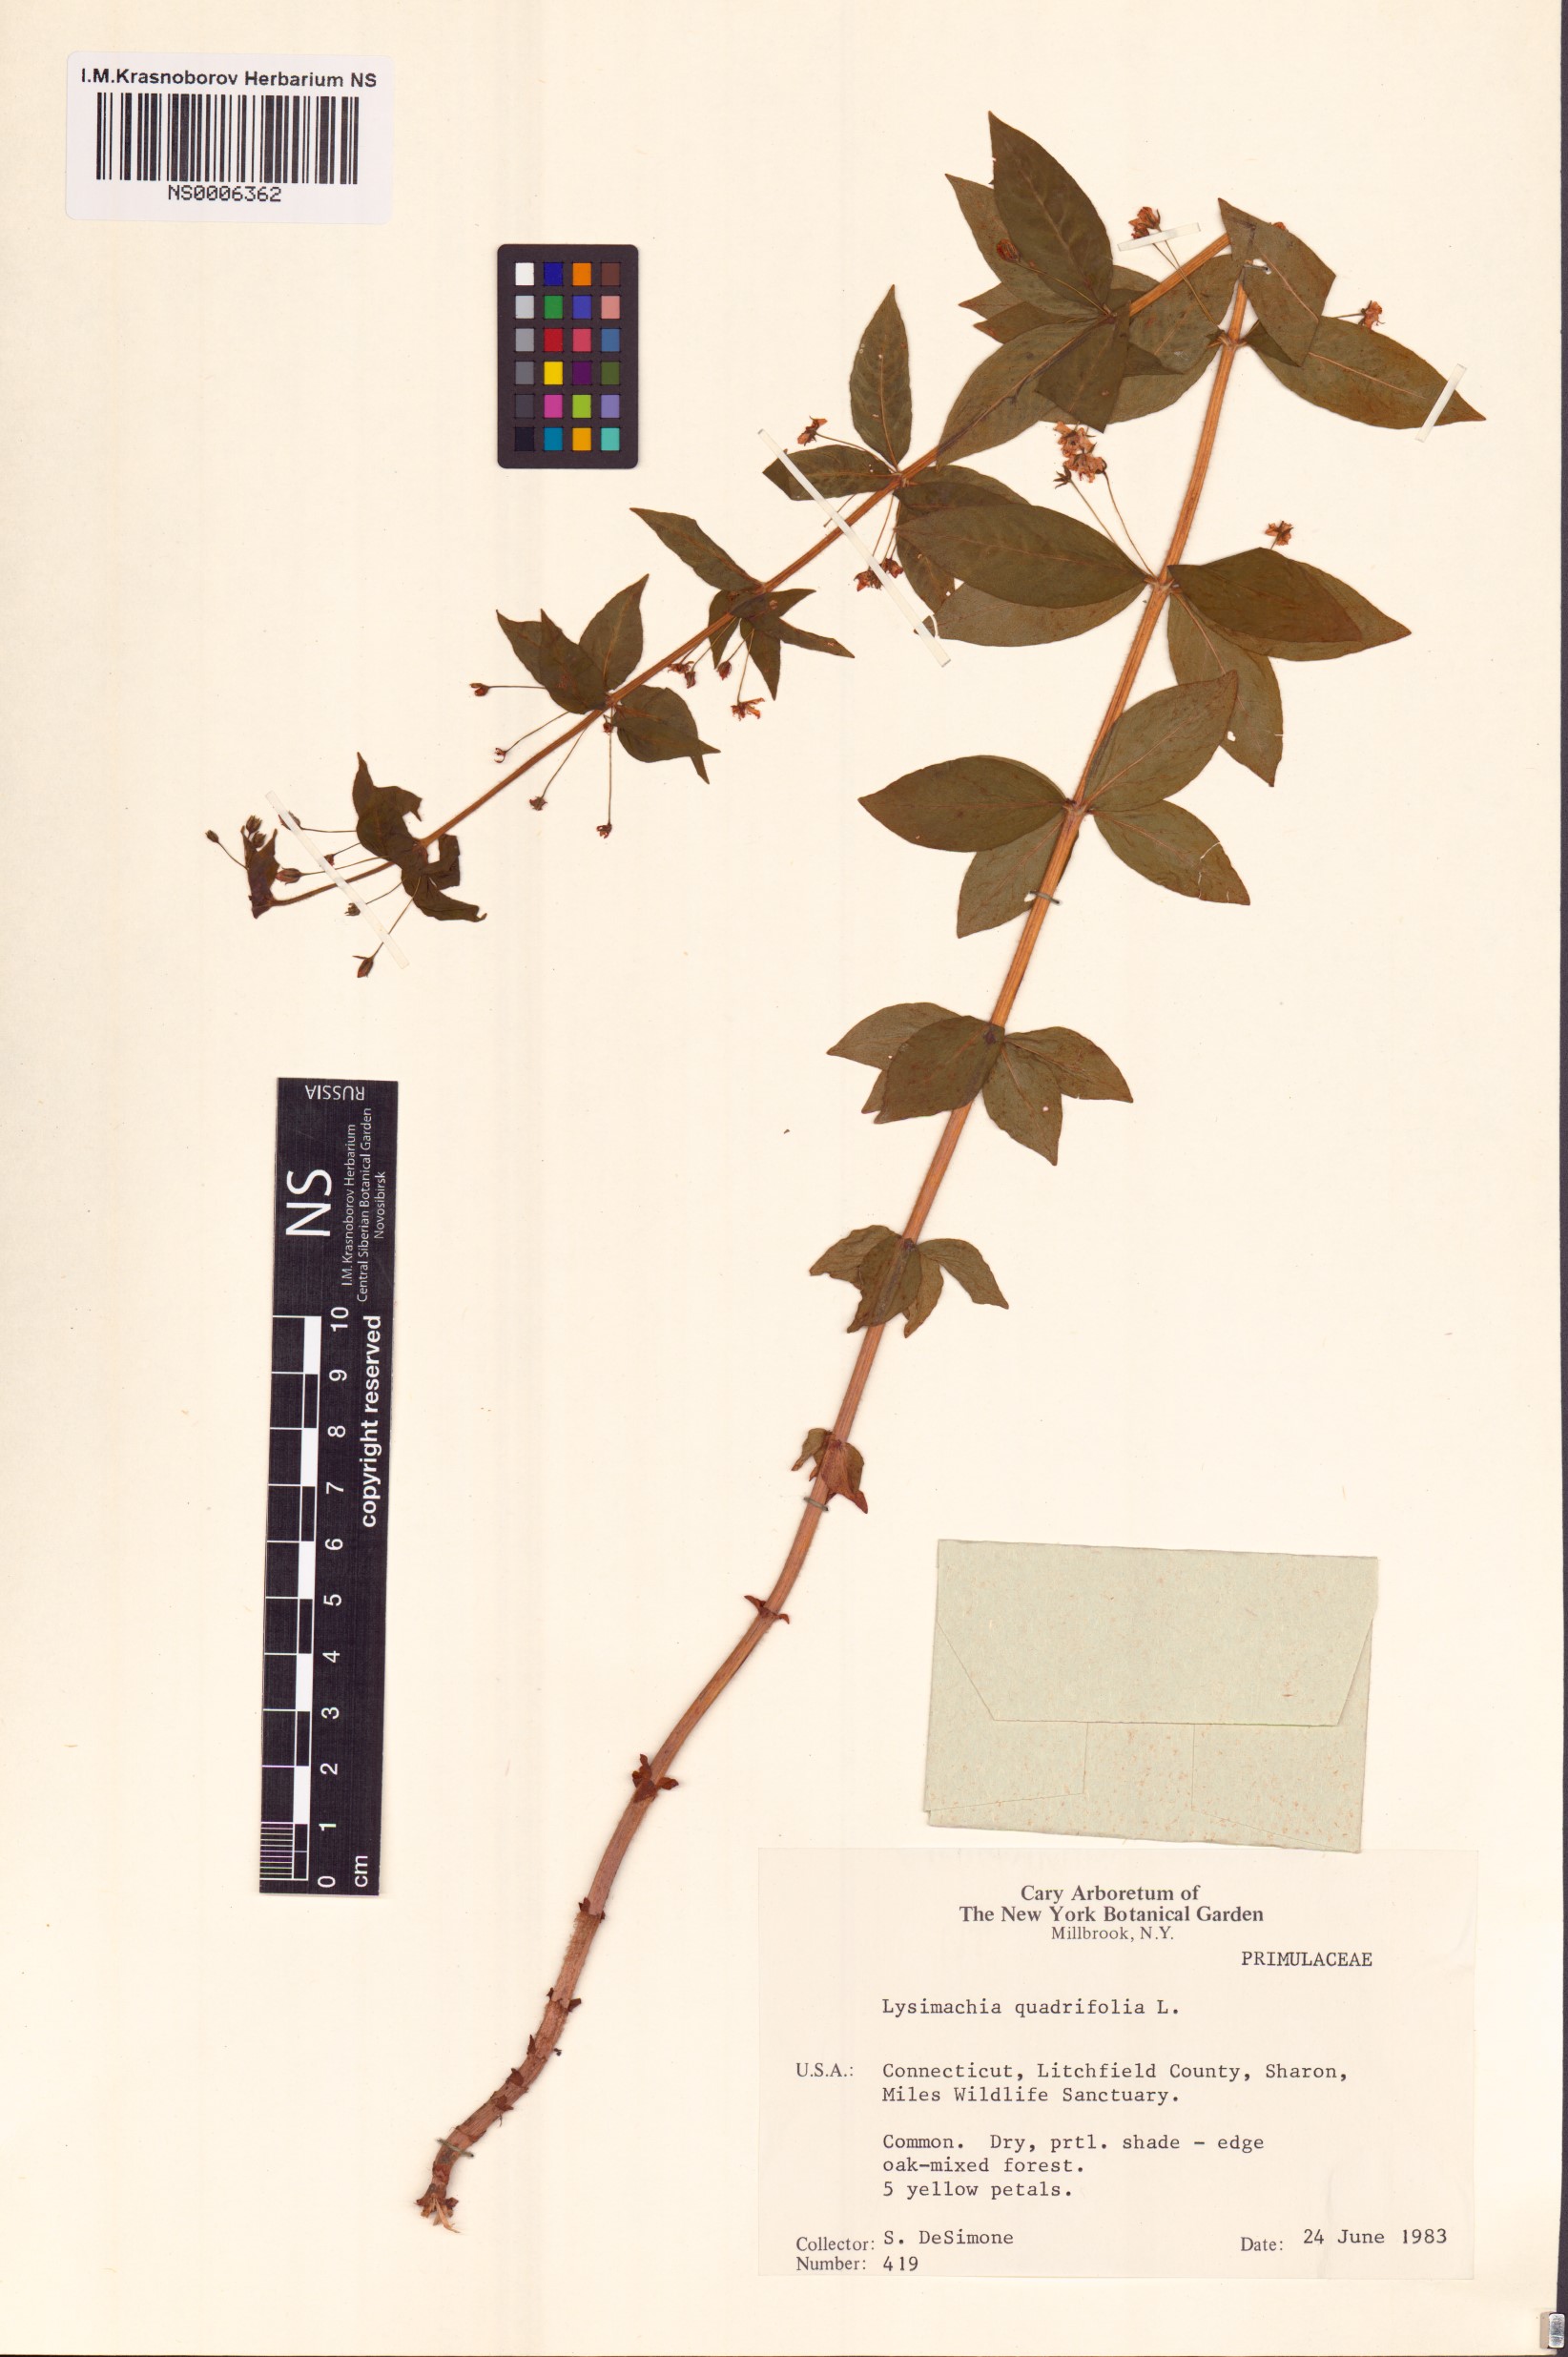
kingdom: Plantae
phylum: Tracheophyta
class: Magnoliopsida
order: Ericales
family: Primulaceae
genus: Lysimachia
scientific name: Lysimachia quadrifolia
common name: Whorled loosestrife
